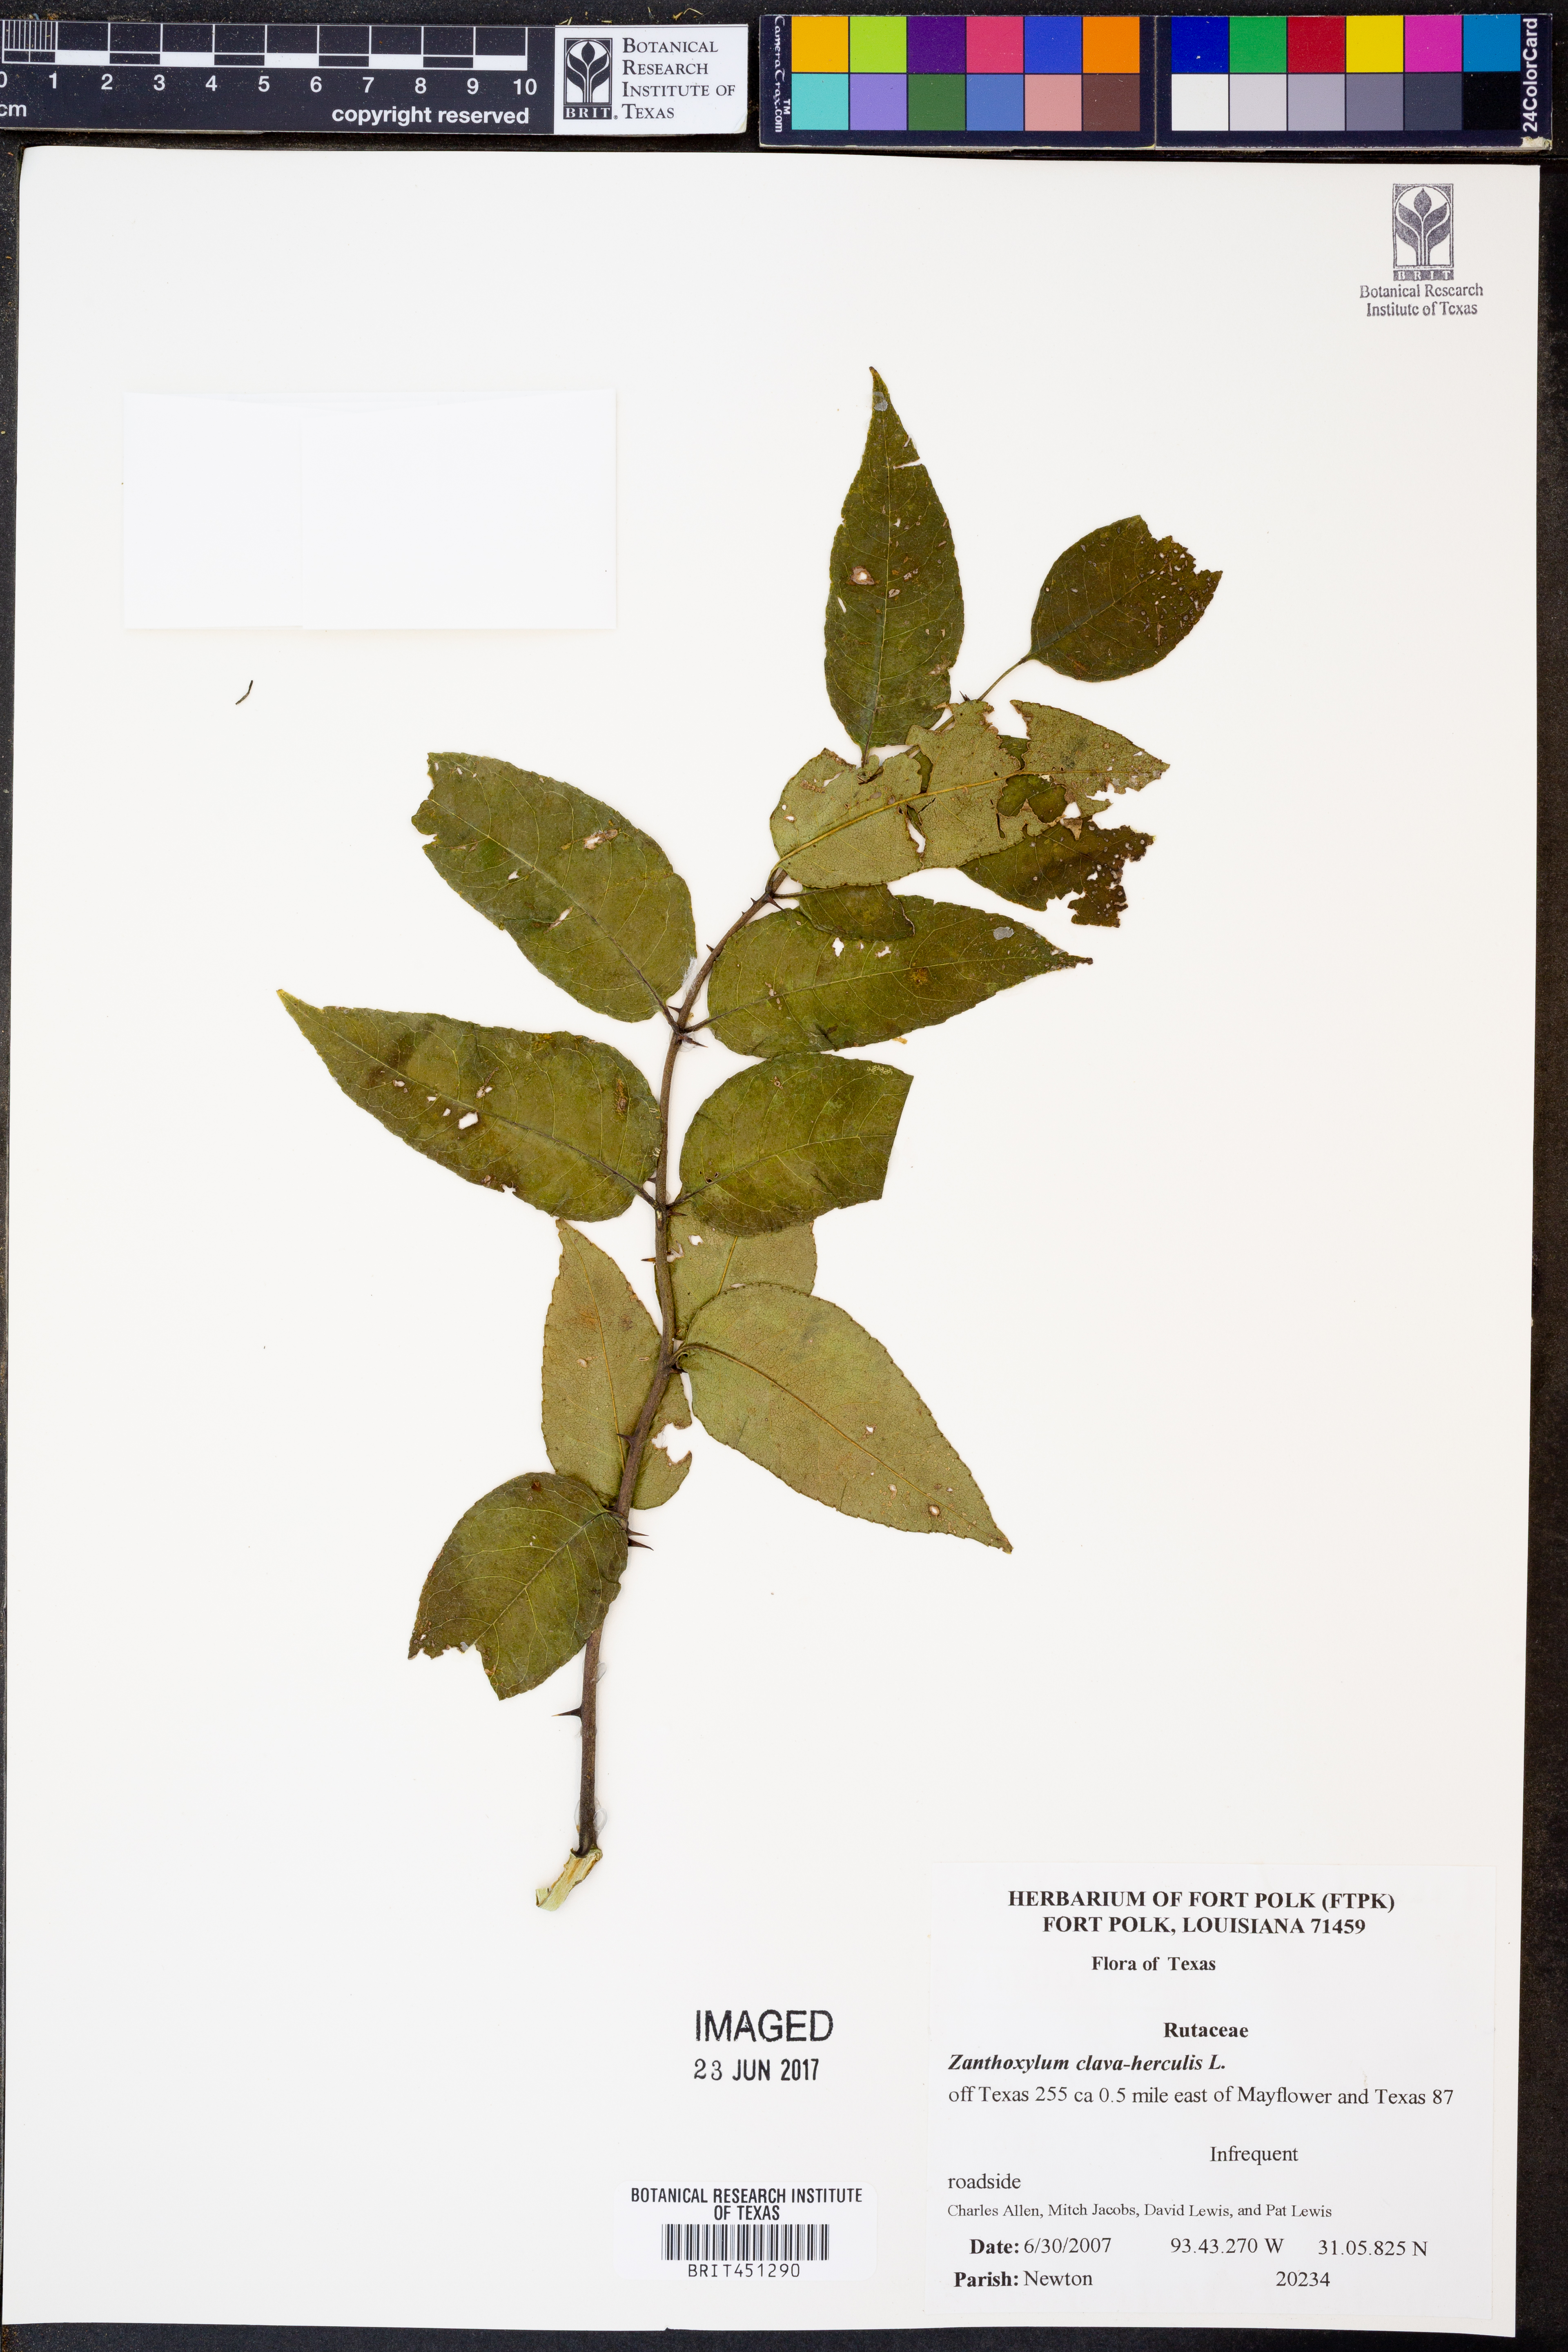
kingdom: Plantae
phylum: Tracheophyta
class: Magnoliopsida
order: Sapindales
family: Rutaceae
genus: Zanthoxylum
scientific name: Zanthoxylum avicennae
